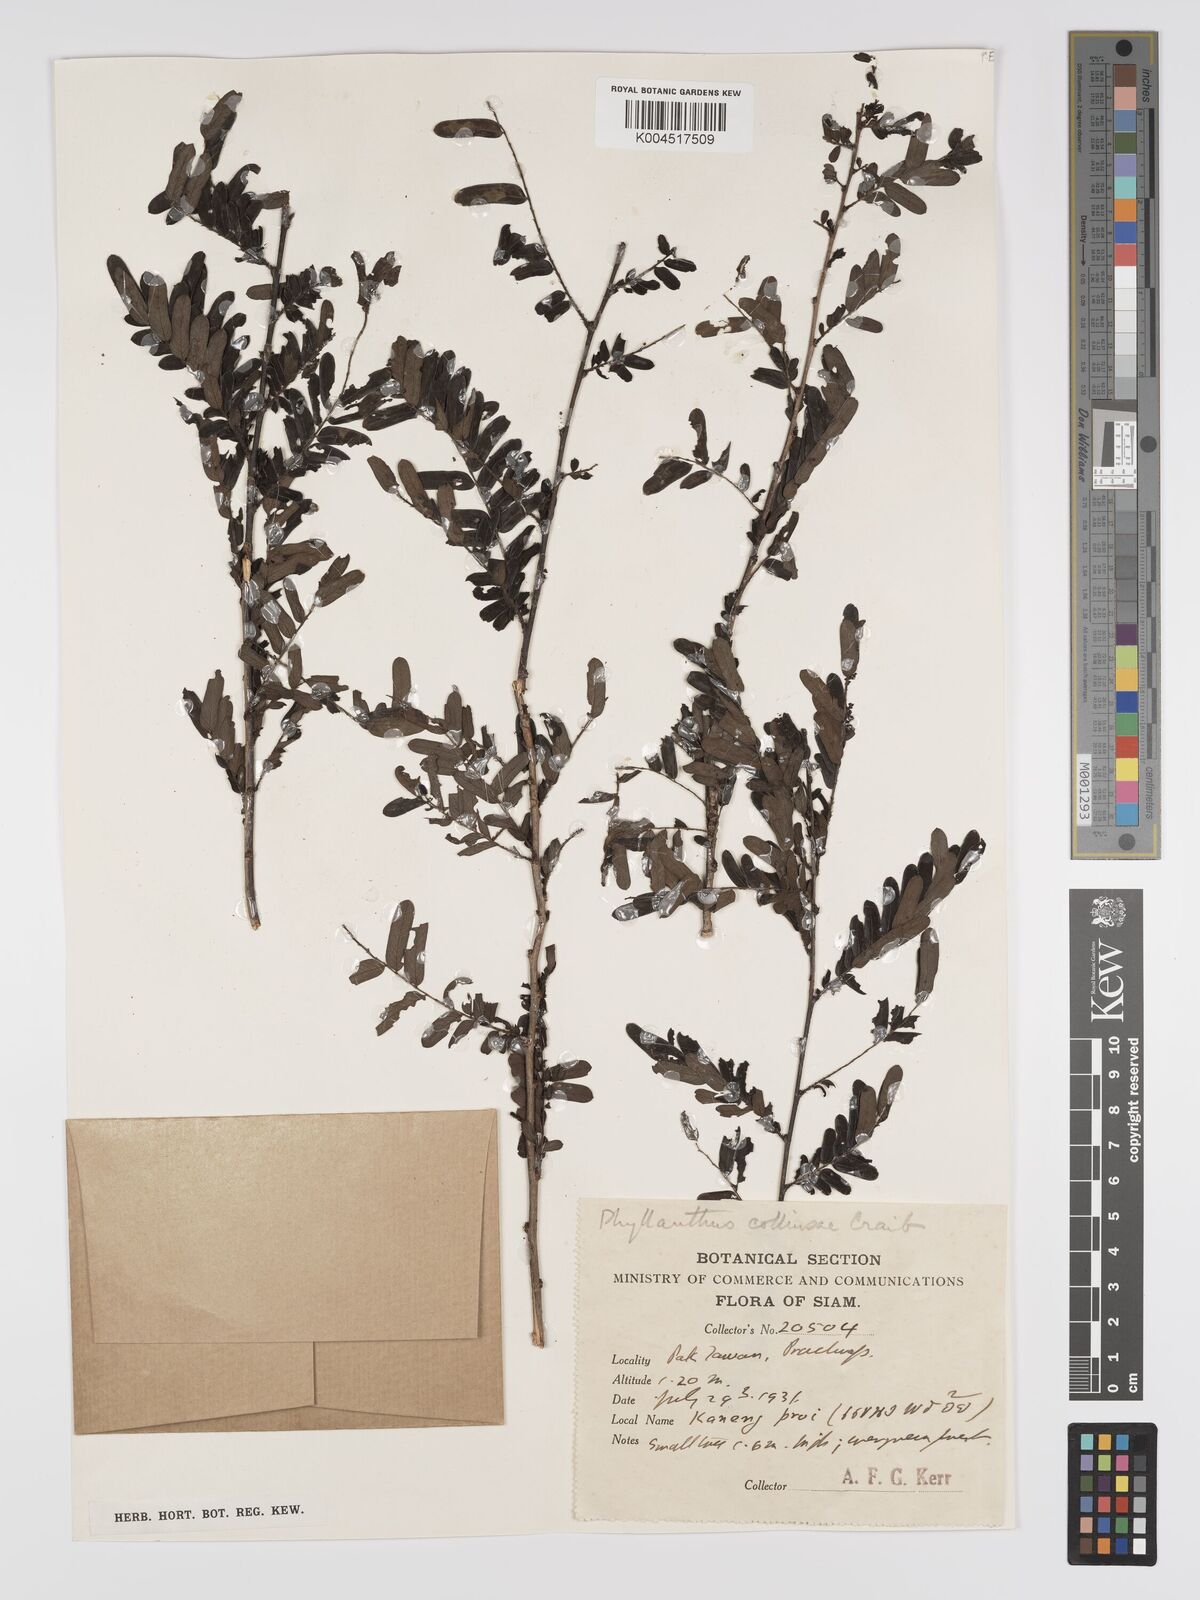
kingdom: Plantae
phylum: Tracheophyta
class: Magnoliopsida
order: Malpighiales
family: Phyllanthaceae
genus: Phyllanthus
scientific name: Phyllanthus collinsiae
